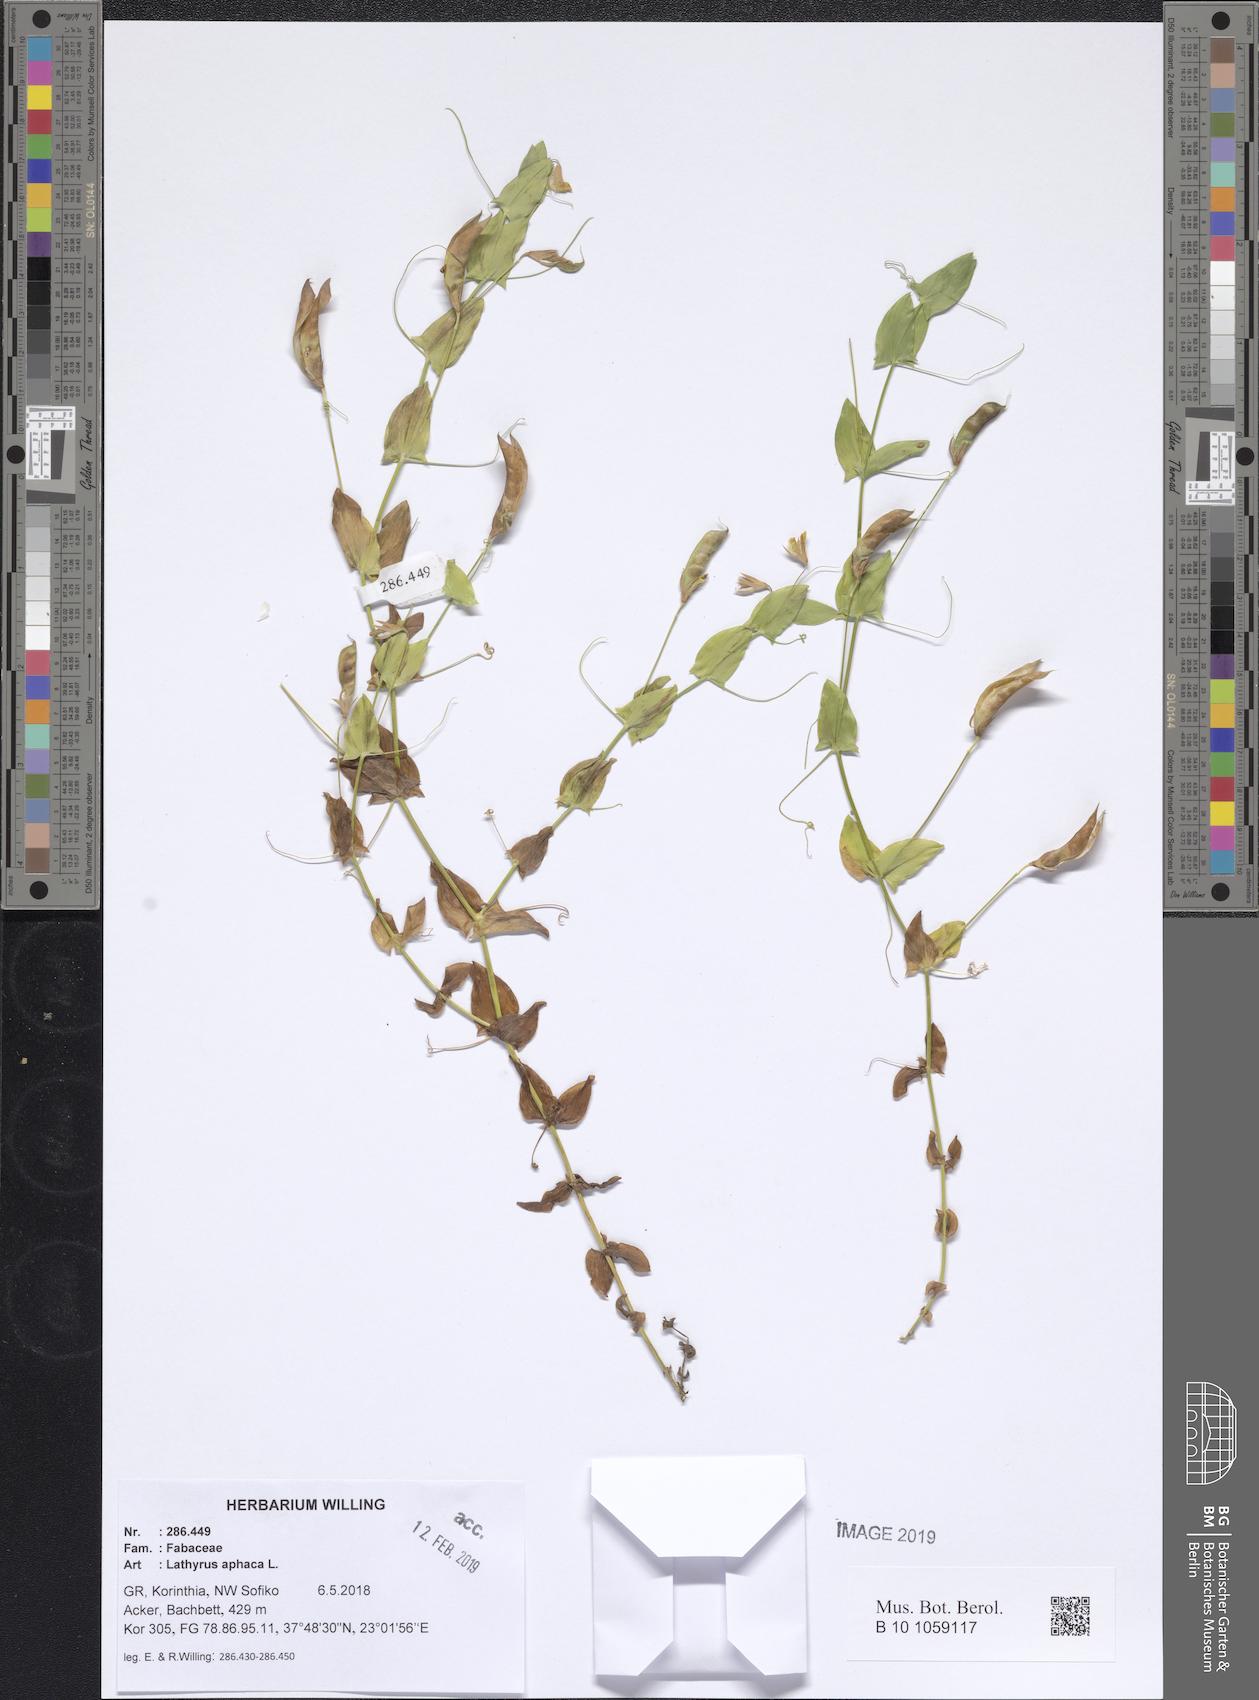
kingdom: Plantae
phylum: Tracheophyta
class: Magnoliopsida
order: Fabales
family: Fabaceae
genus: Lathyrus
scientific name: Lathyrus aphaca
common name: Yellow vetchling
